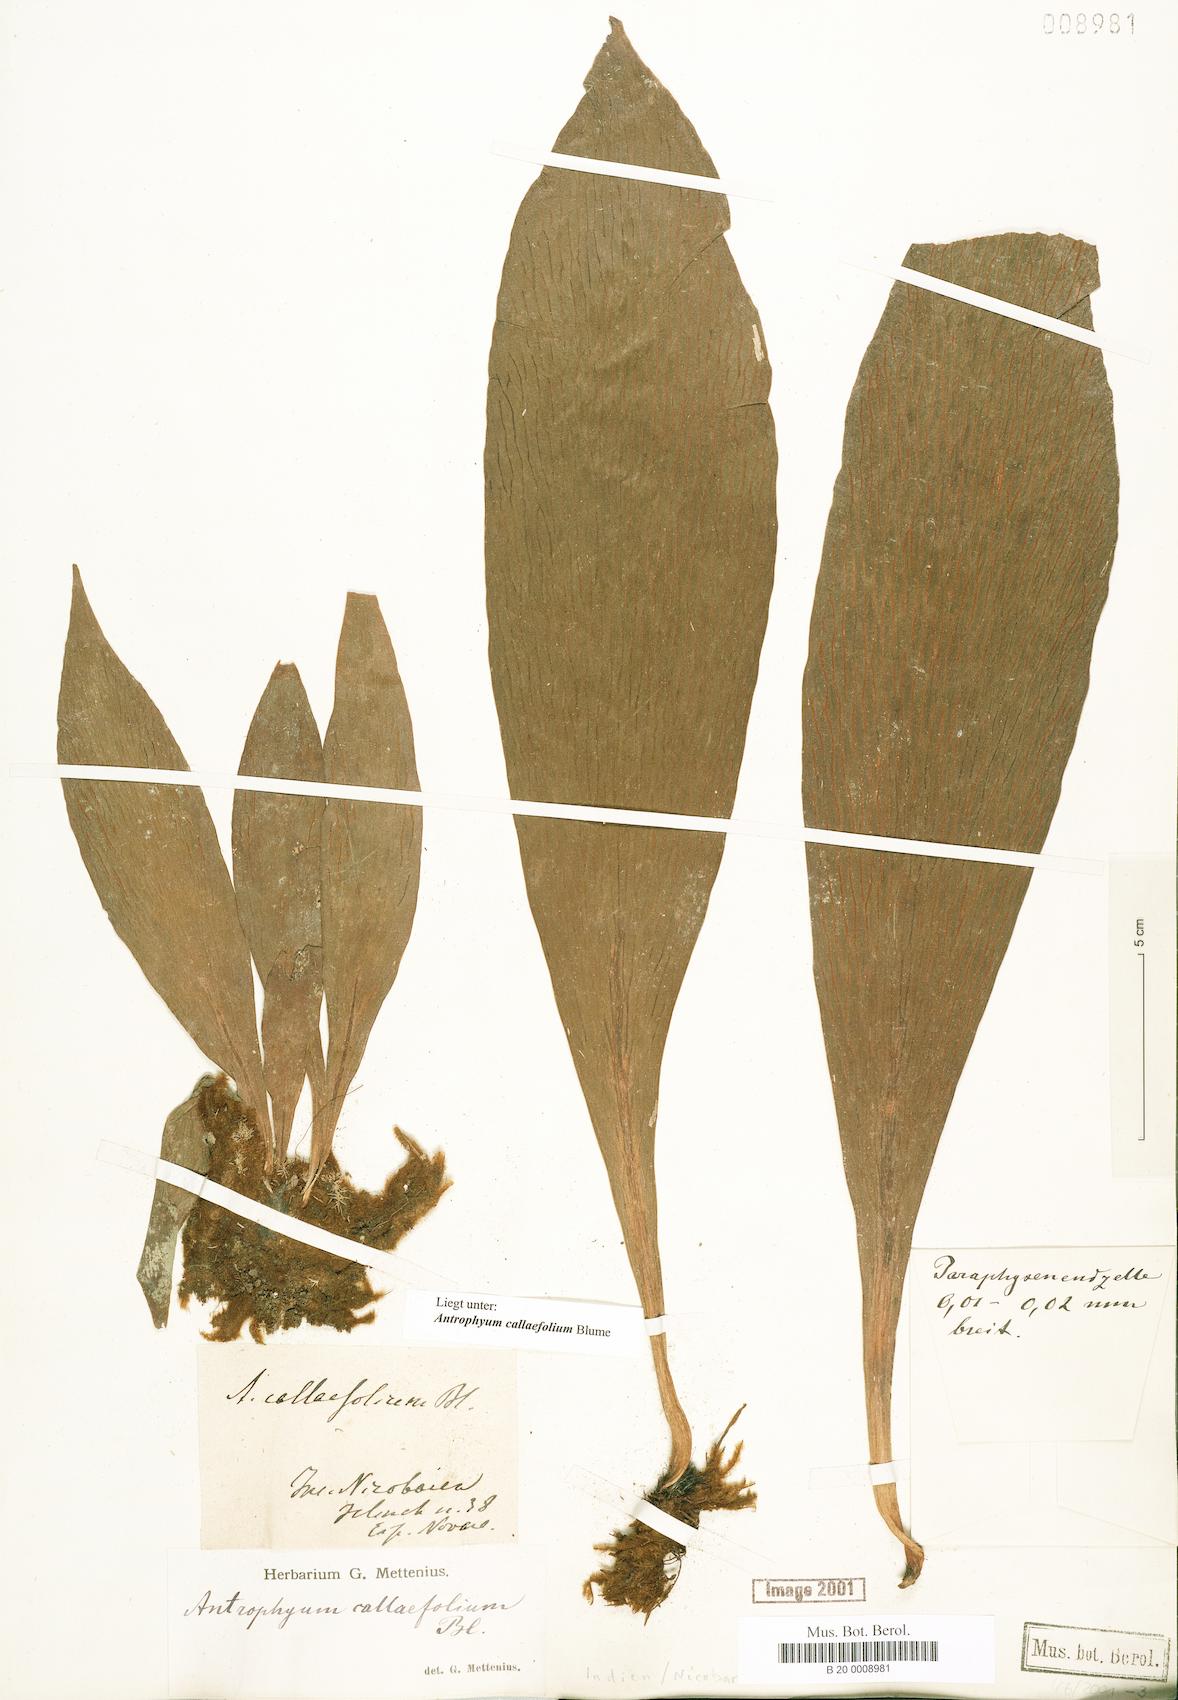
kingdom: Plantae
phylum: Tracheophyta
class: Polypodiopsida
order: Polypodiales
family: Pteridaceae
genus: Antrophyum
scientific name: Antrophyum callifolium
